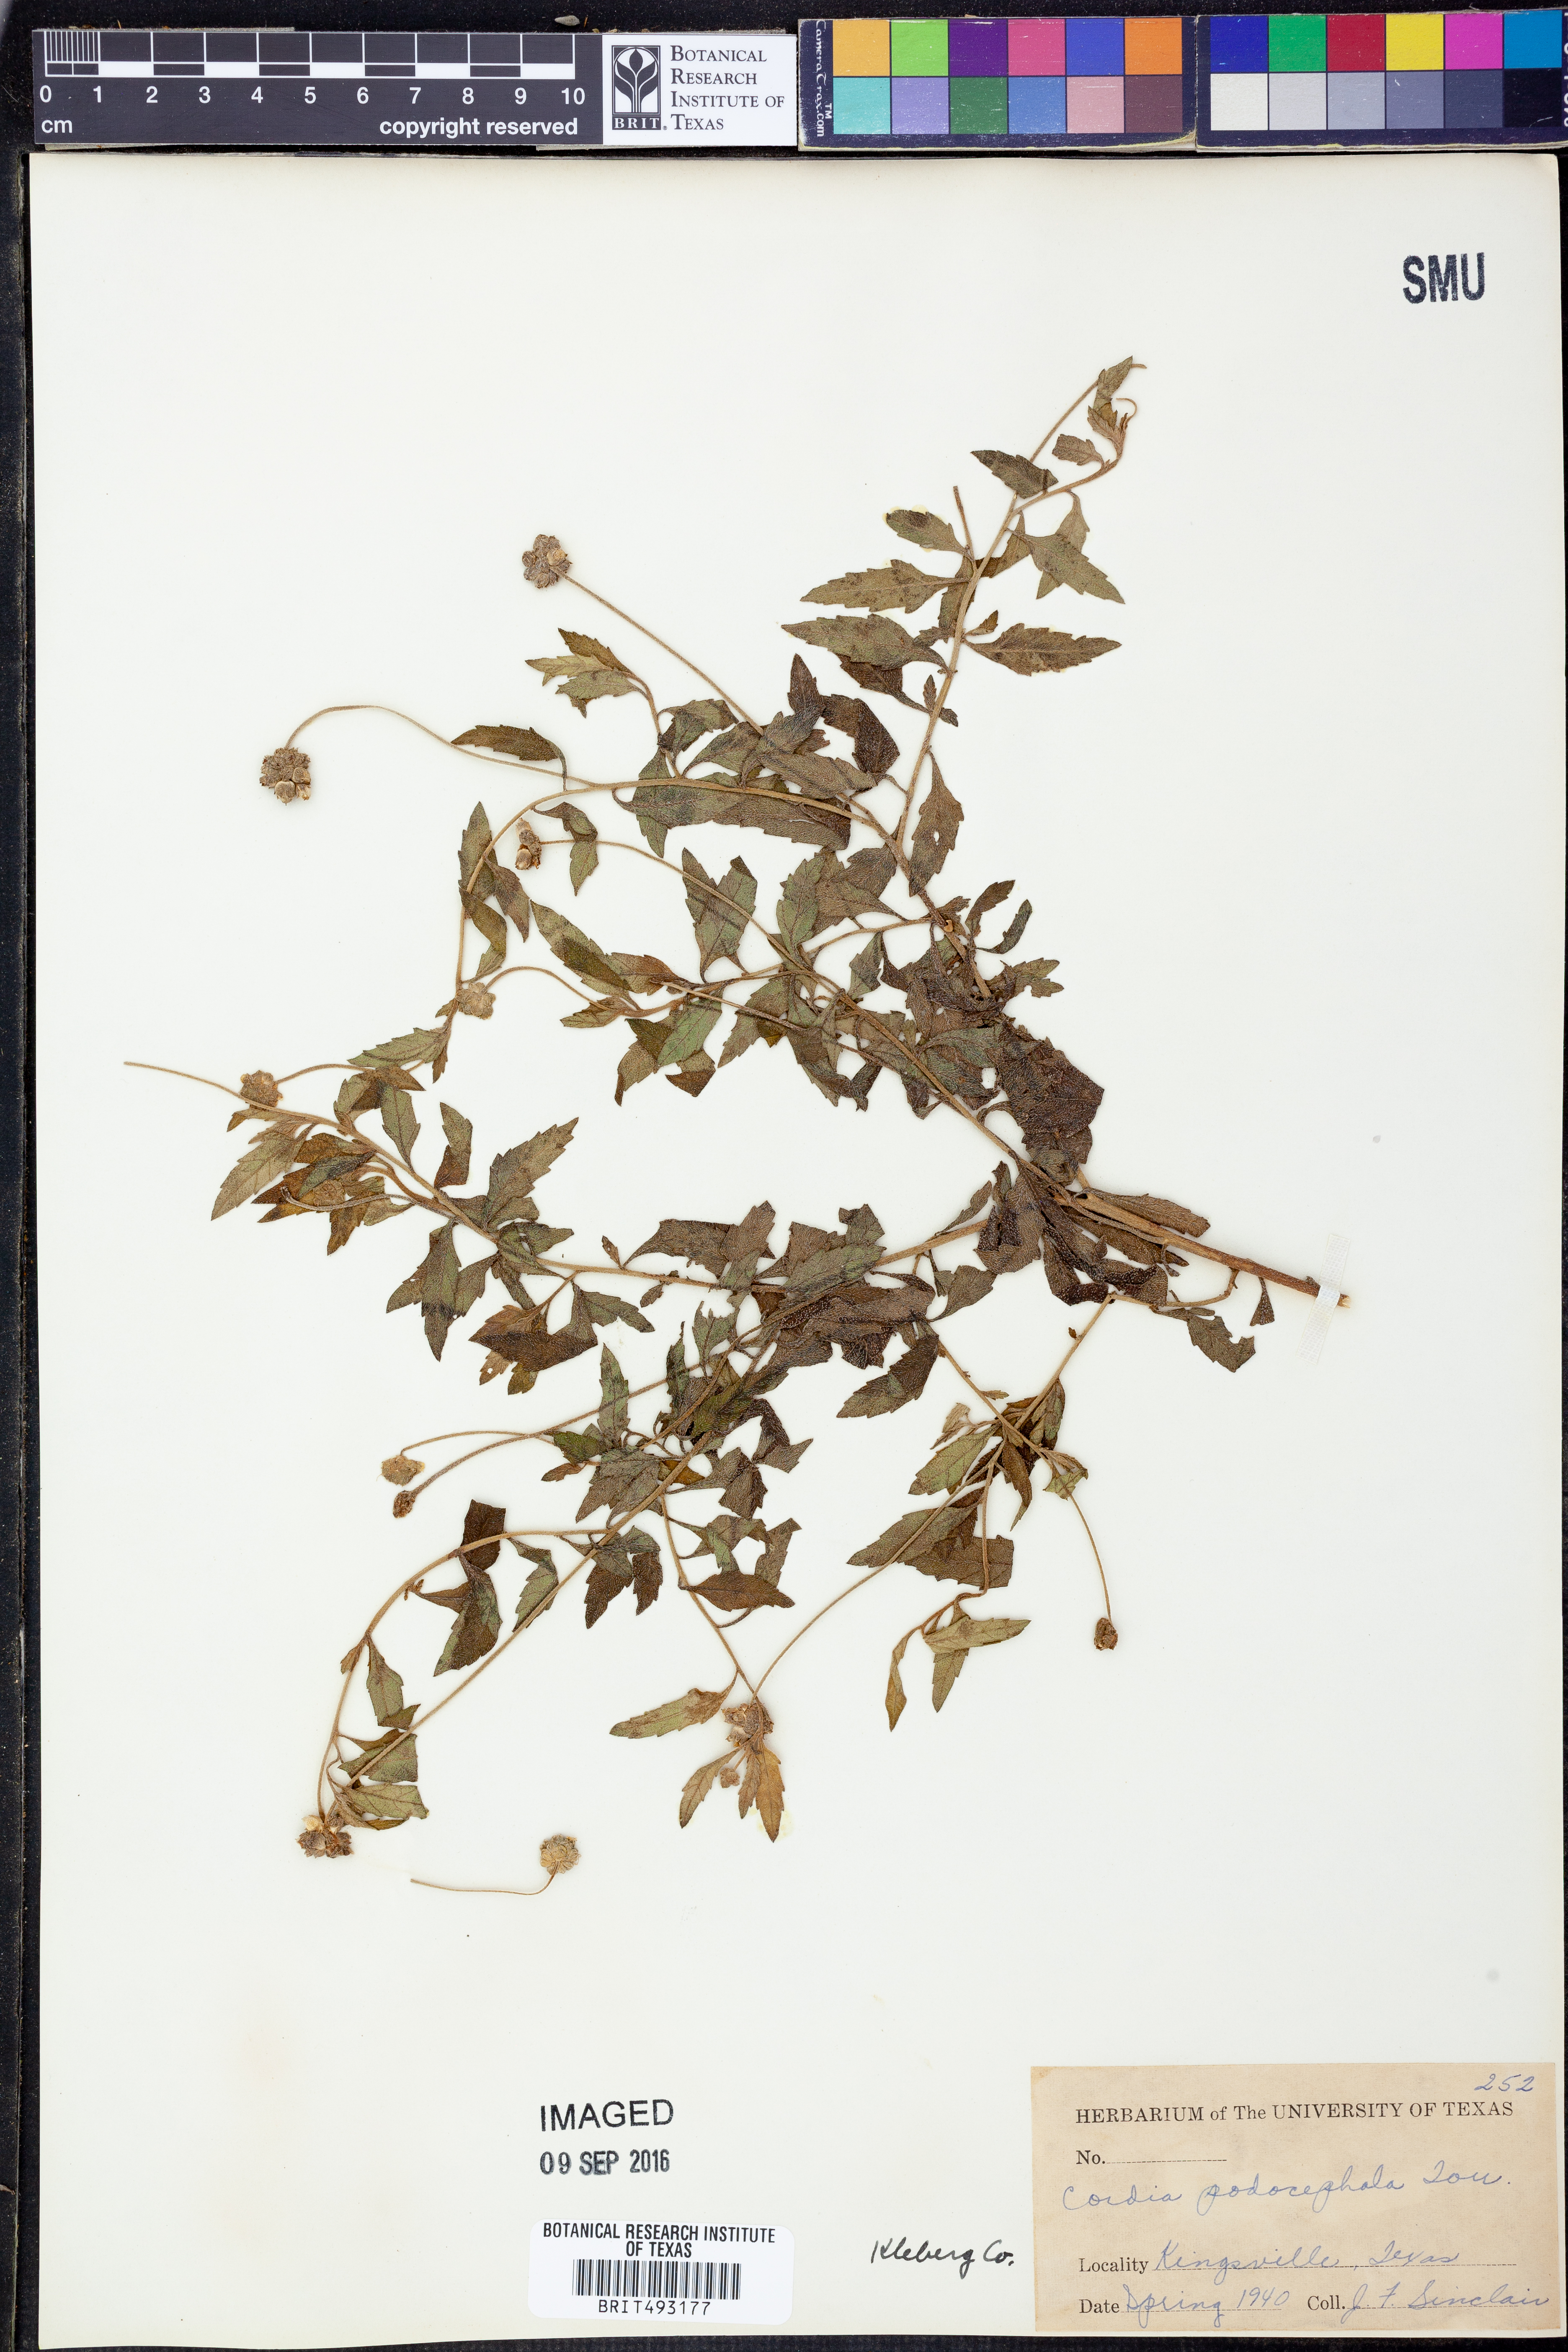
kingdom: Plantae
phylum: Tracheophyta
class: Magnoliopsida
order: Boraginales
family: Cordiaceae
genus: Varronia
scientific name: Varronia podocephala
